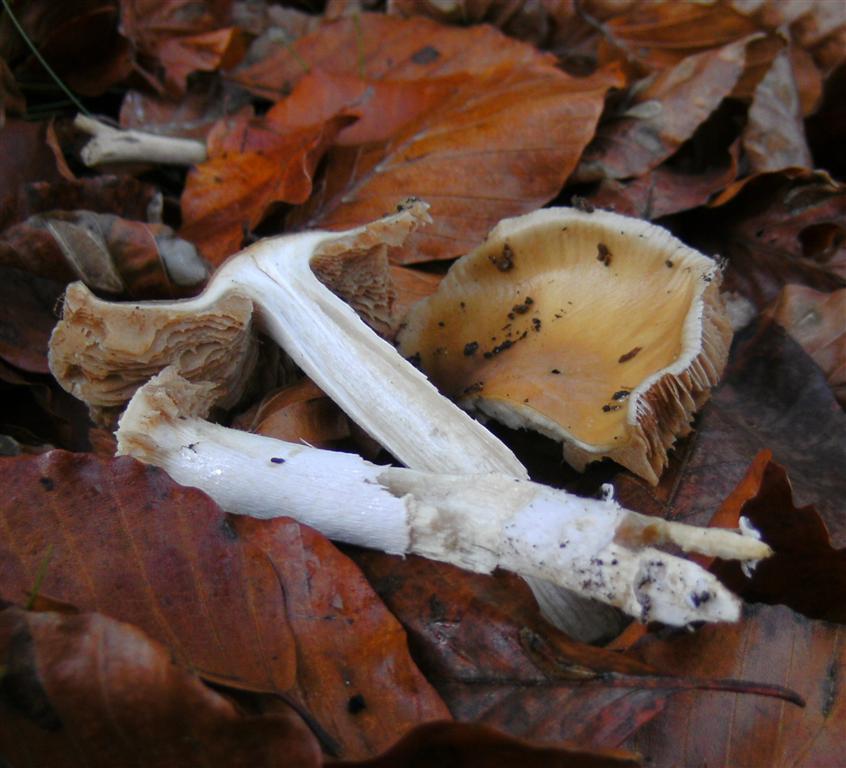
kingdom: Fungi
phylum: Basidiomycota
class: Agaricomycetes
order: Agaricales
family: Cortinariaceae
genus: Cortinarius
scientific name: Cortinarius elatior
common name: høj slørhat
